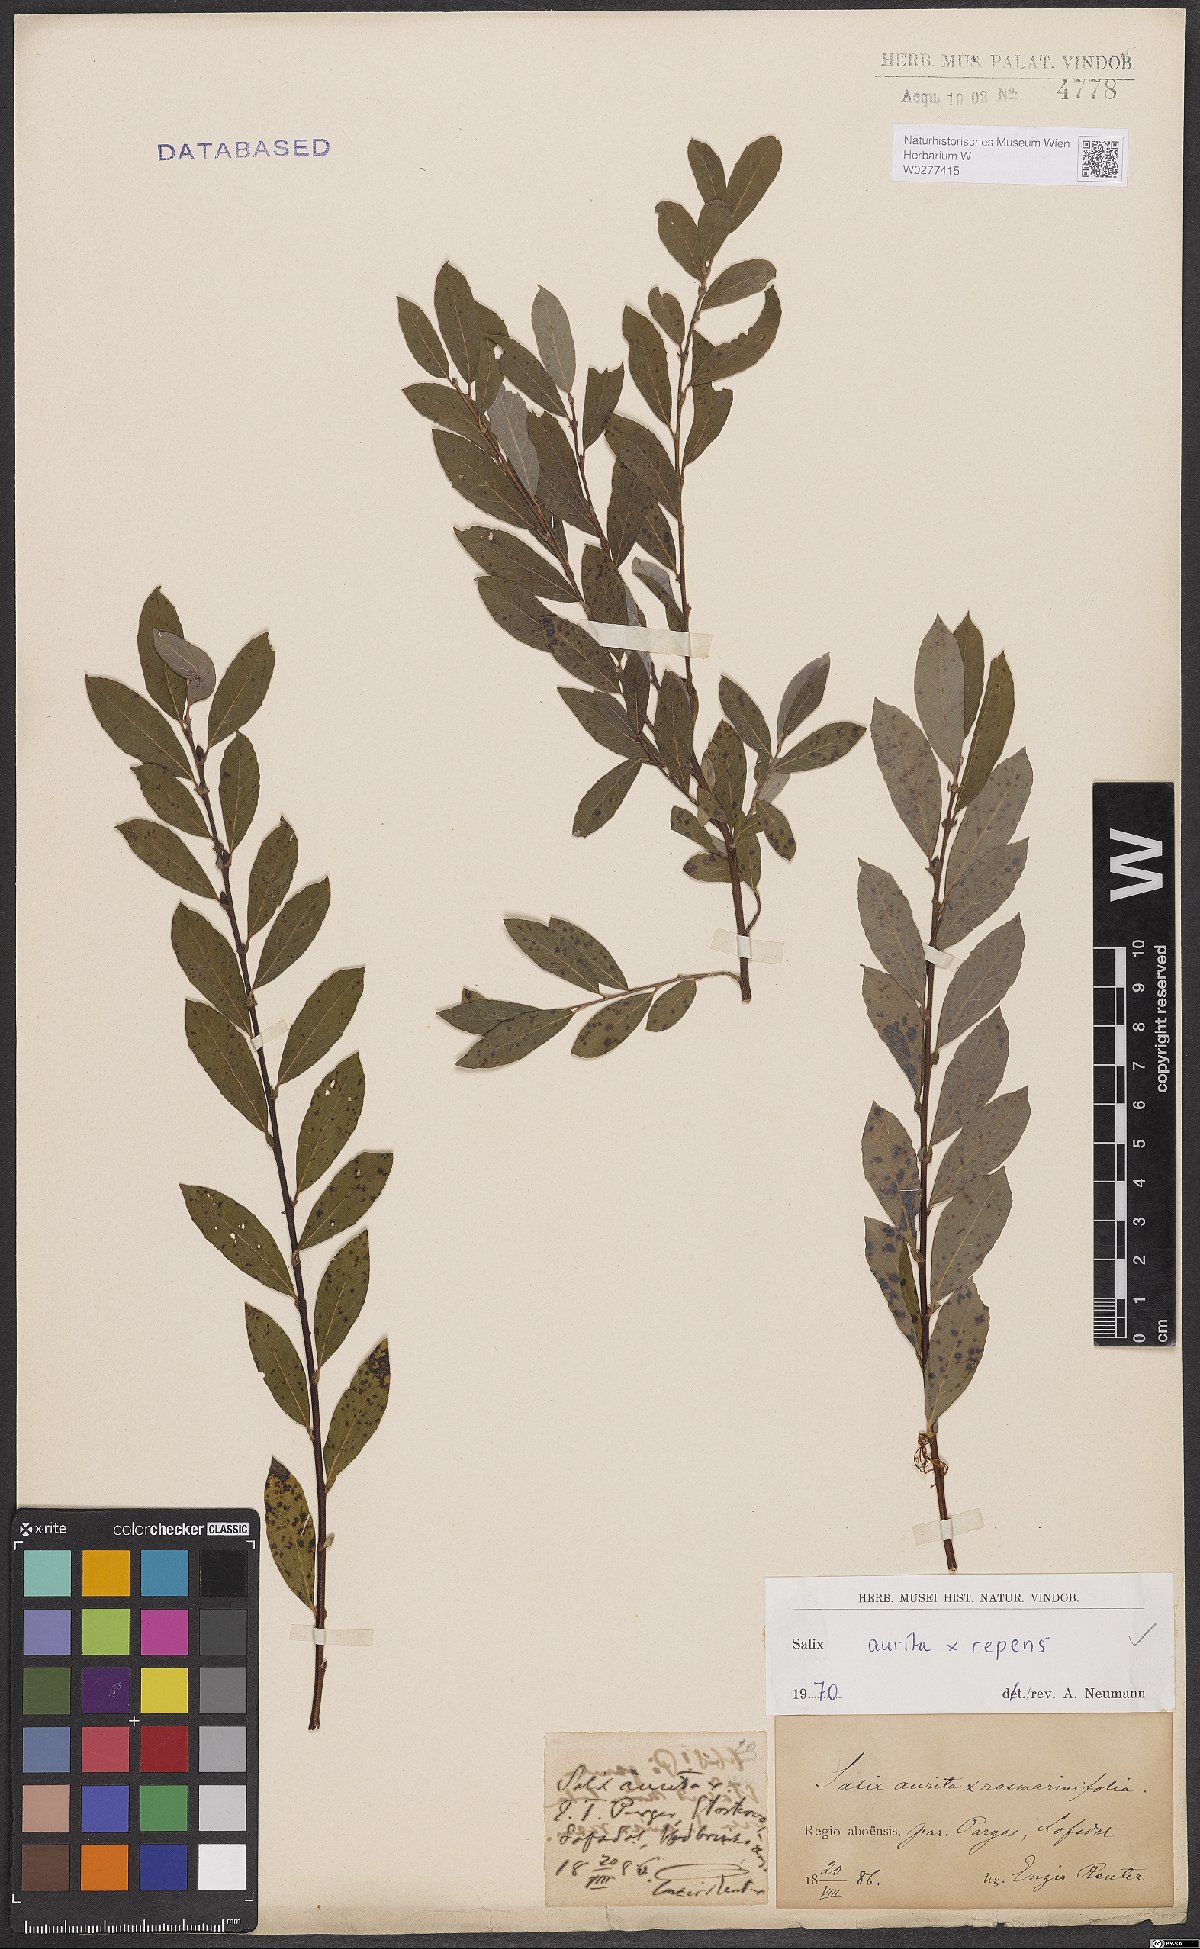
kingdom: Plantae
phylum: Tracheophyta
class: Magnoliopsida
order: Malpighiales
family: Salicaceae
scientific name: Salicaceae
